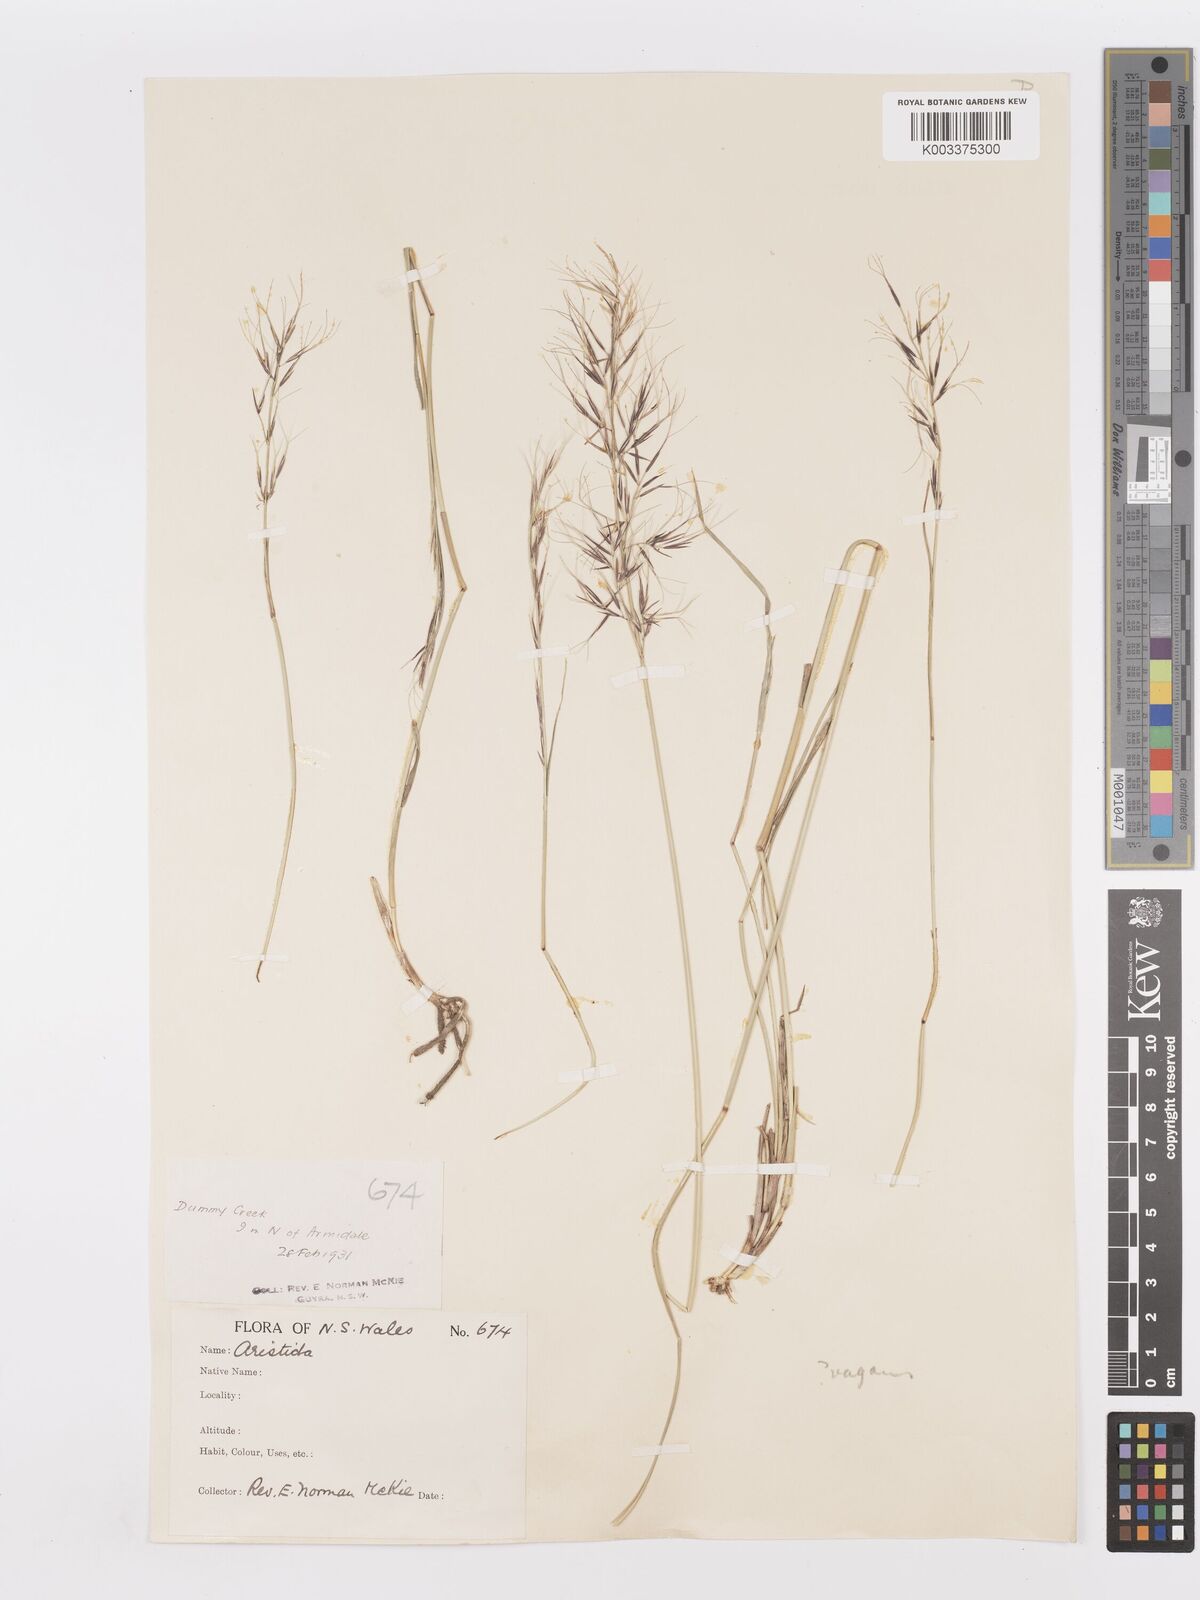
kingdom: Plantae
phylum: Tracheophyta
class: Liliopsida
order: Poales
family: Poaceae
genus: Aristida
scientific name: Aristida vagans
